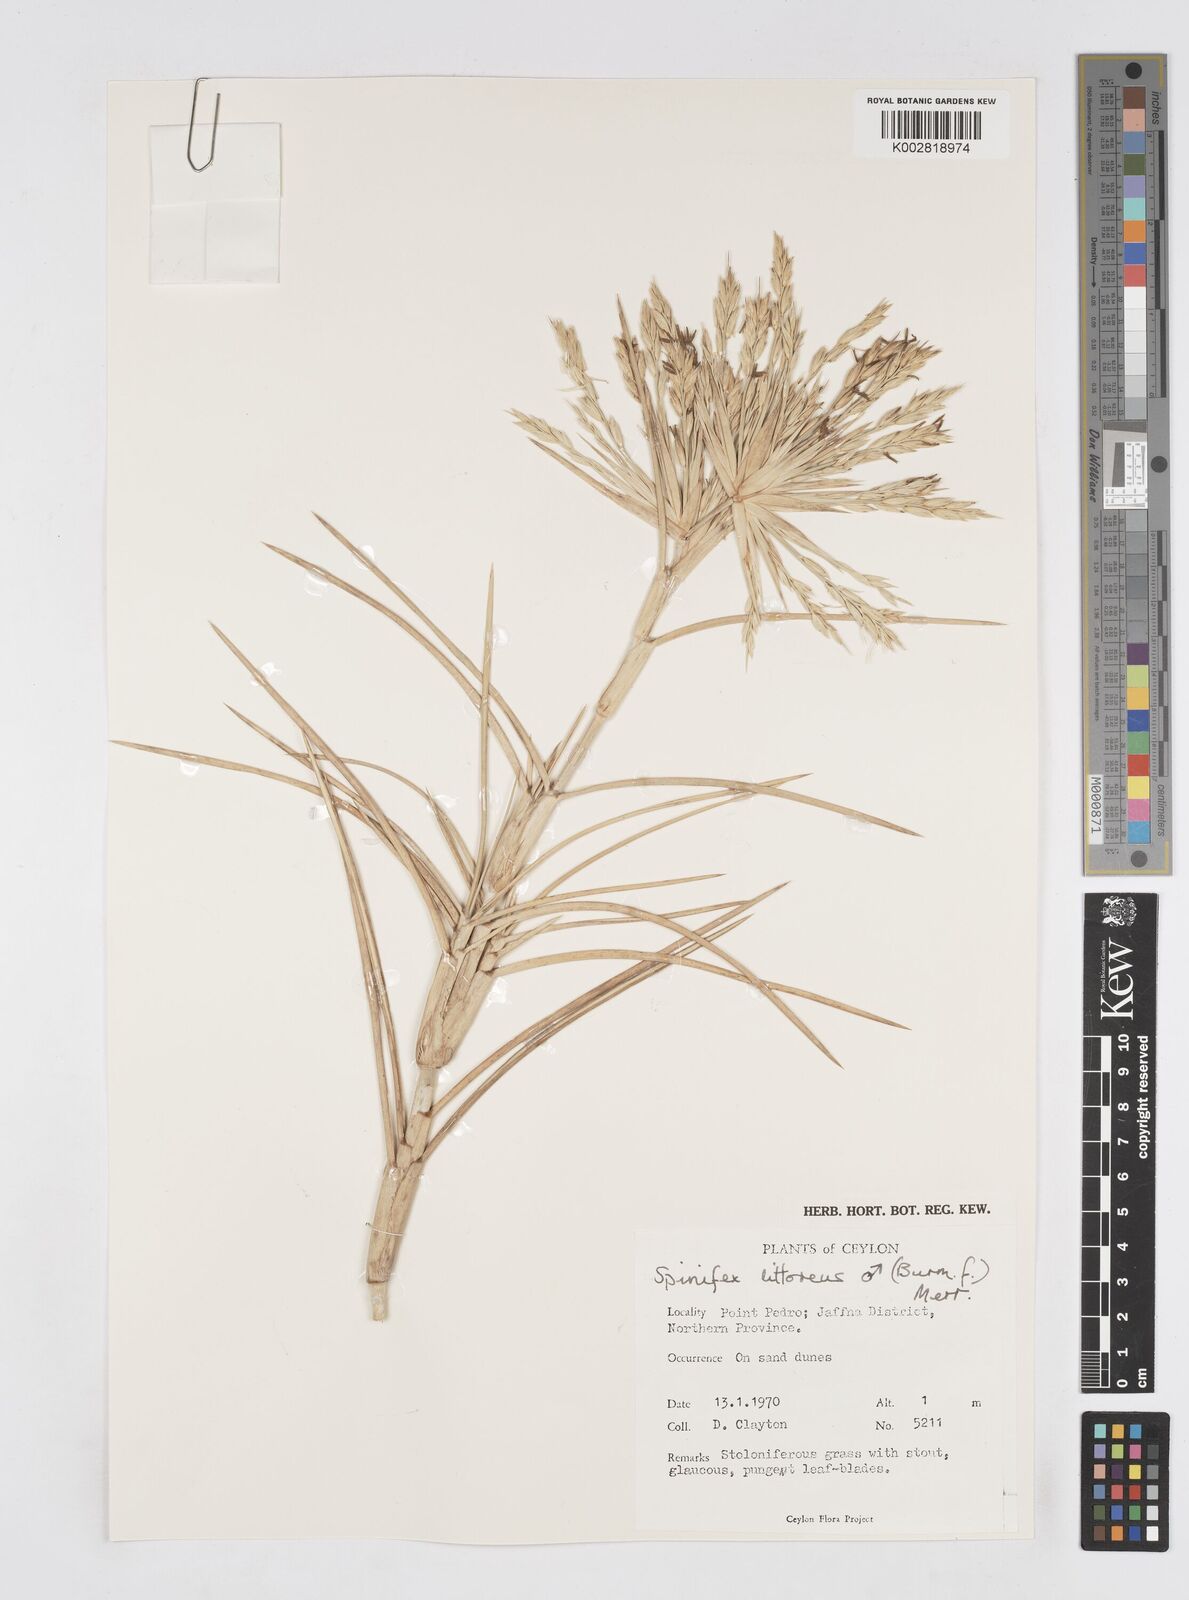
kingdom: Plantae
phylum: Tracheophyta
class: Liliopsida
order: Poales
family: Poaceae
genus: Spinifex
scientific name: Spinifex littoreus
